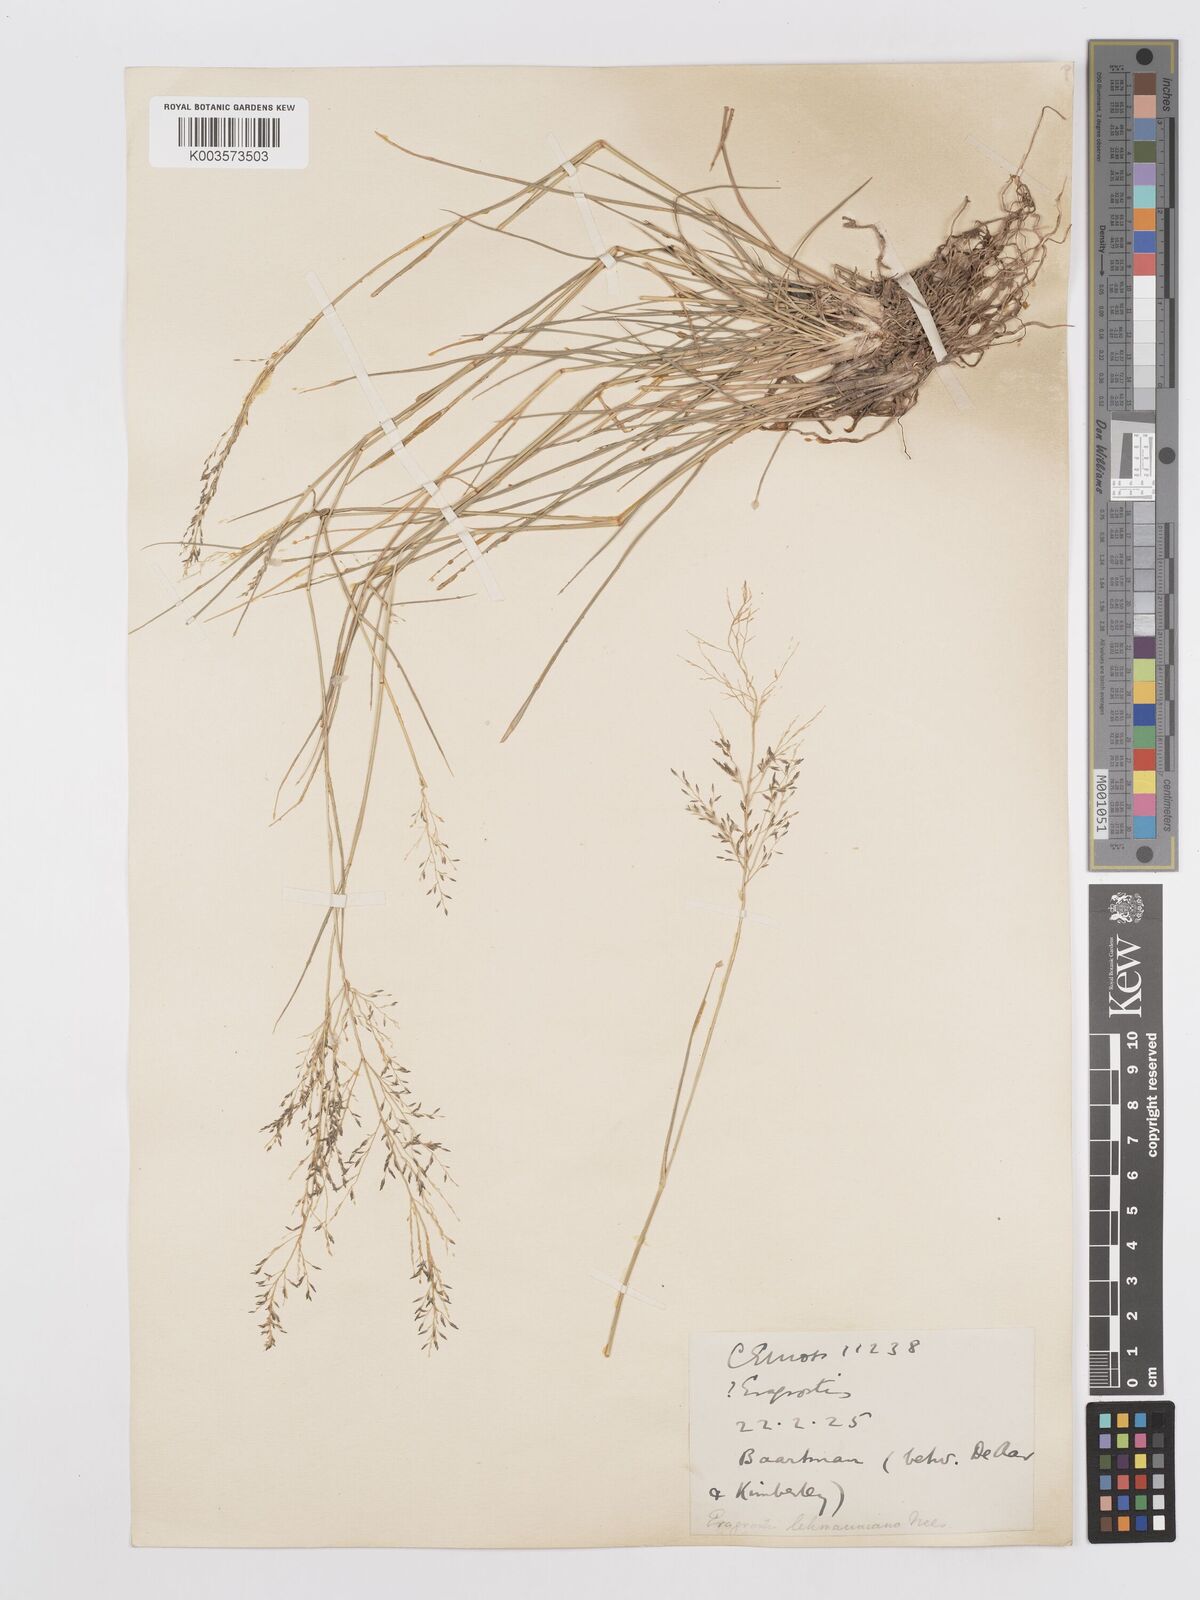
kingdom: Plantae
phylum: Tracheophyta
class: Liliopsida
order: Poales
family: Poaceae
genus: Eragrostis
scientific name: Eragrostis lehmanniana
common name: Lehmann lovegrass
